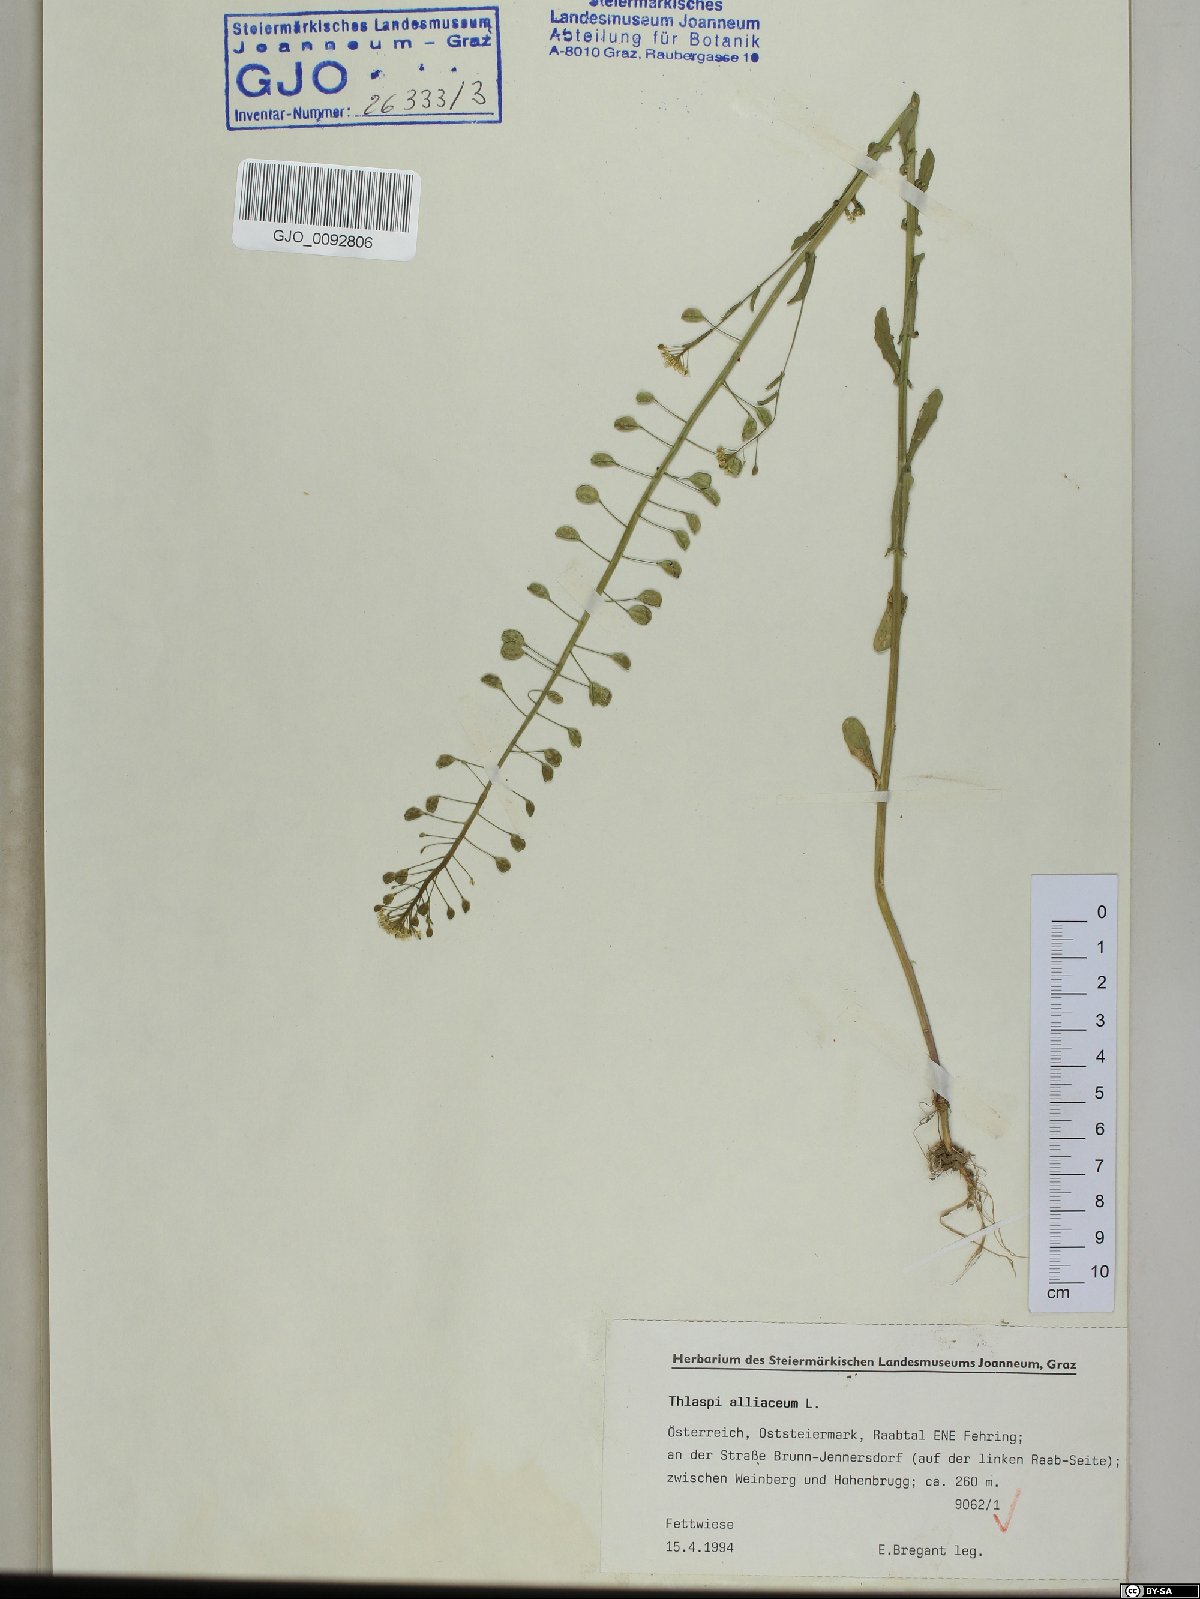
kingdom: Plantae
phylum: Tracheophyta
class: Magnoliopsida
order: Brassicales
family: Brassicaceae
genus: Mummenhoffia
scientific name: Mummenhoffia alliacea
